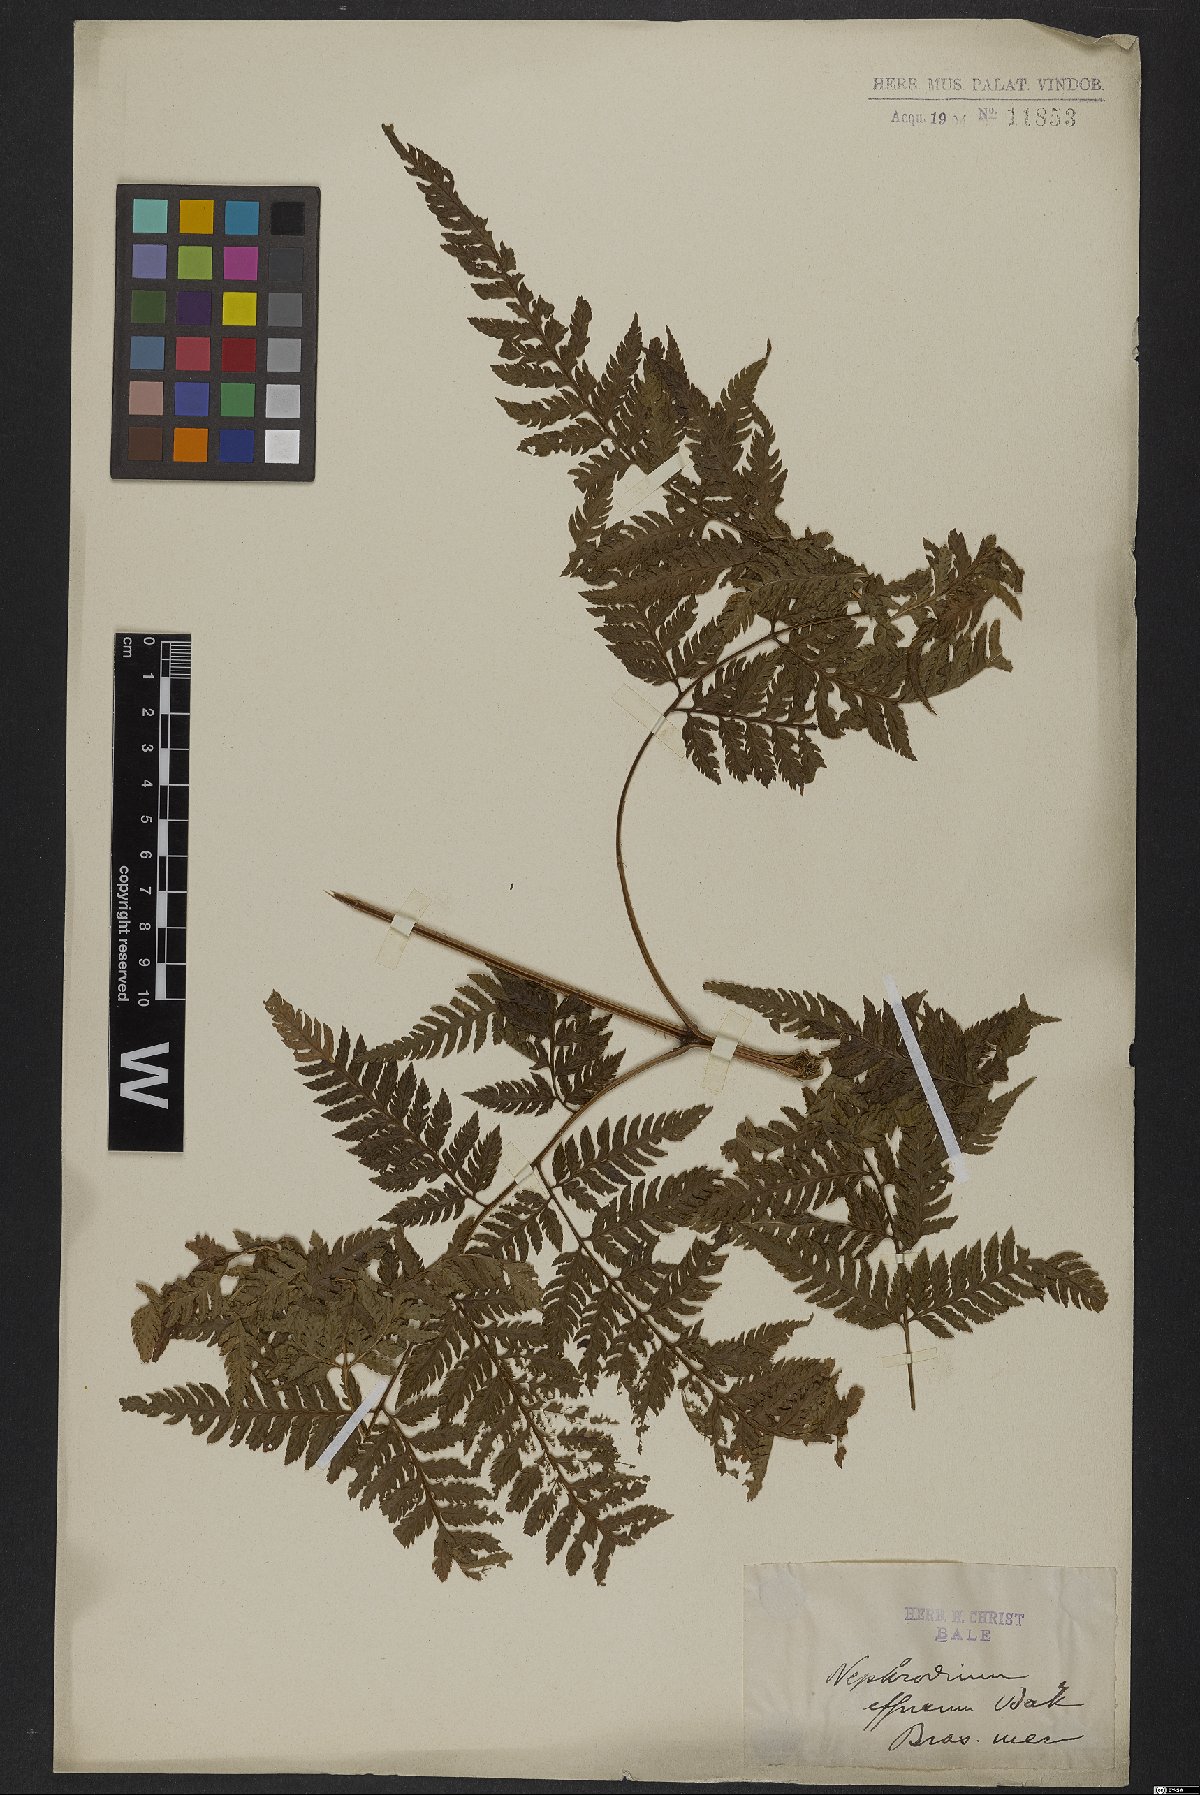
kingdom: Plantae
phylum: Tracheophyta
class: Polypodiopsida
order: Polypodiales
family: Dryopteridaceae
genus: Parapolystichum
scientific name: Parapolystichum effusum
